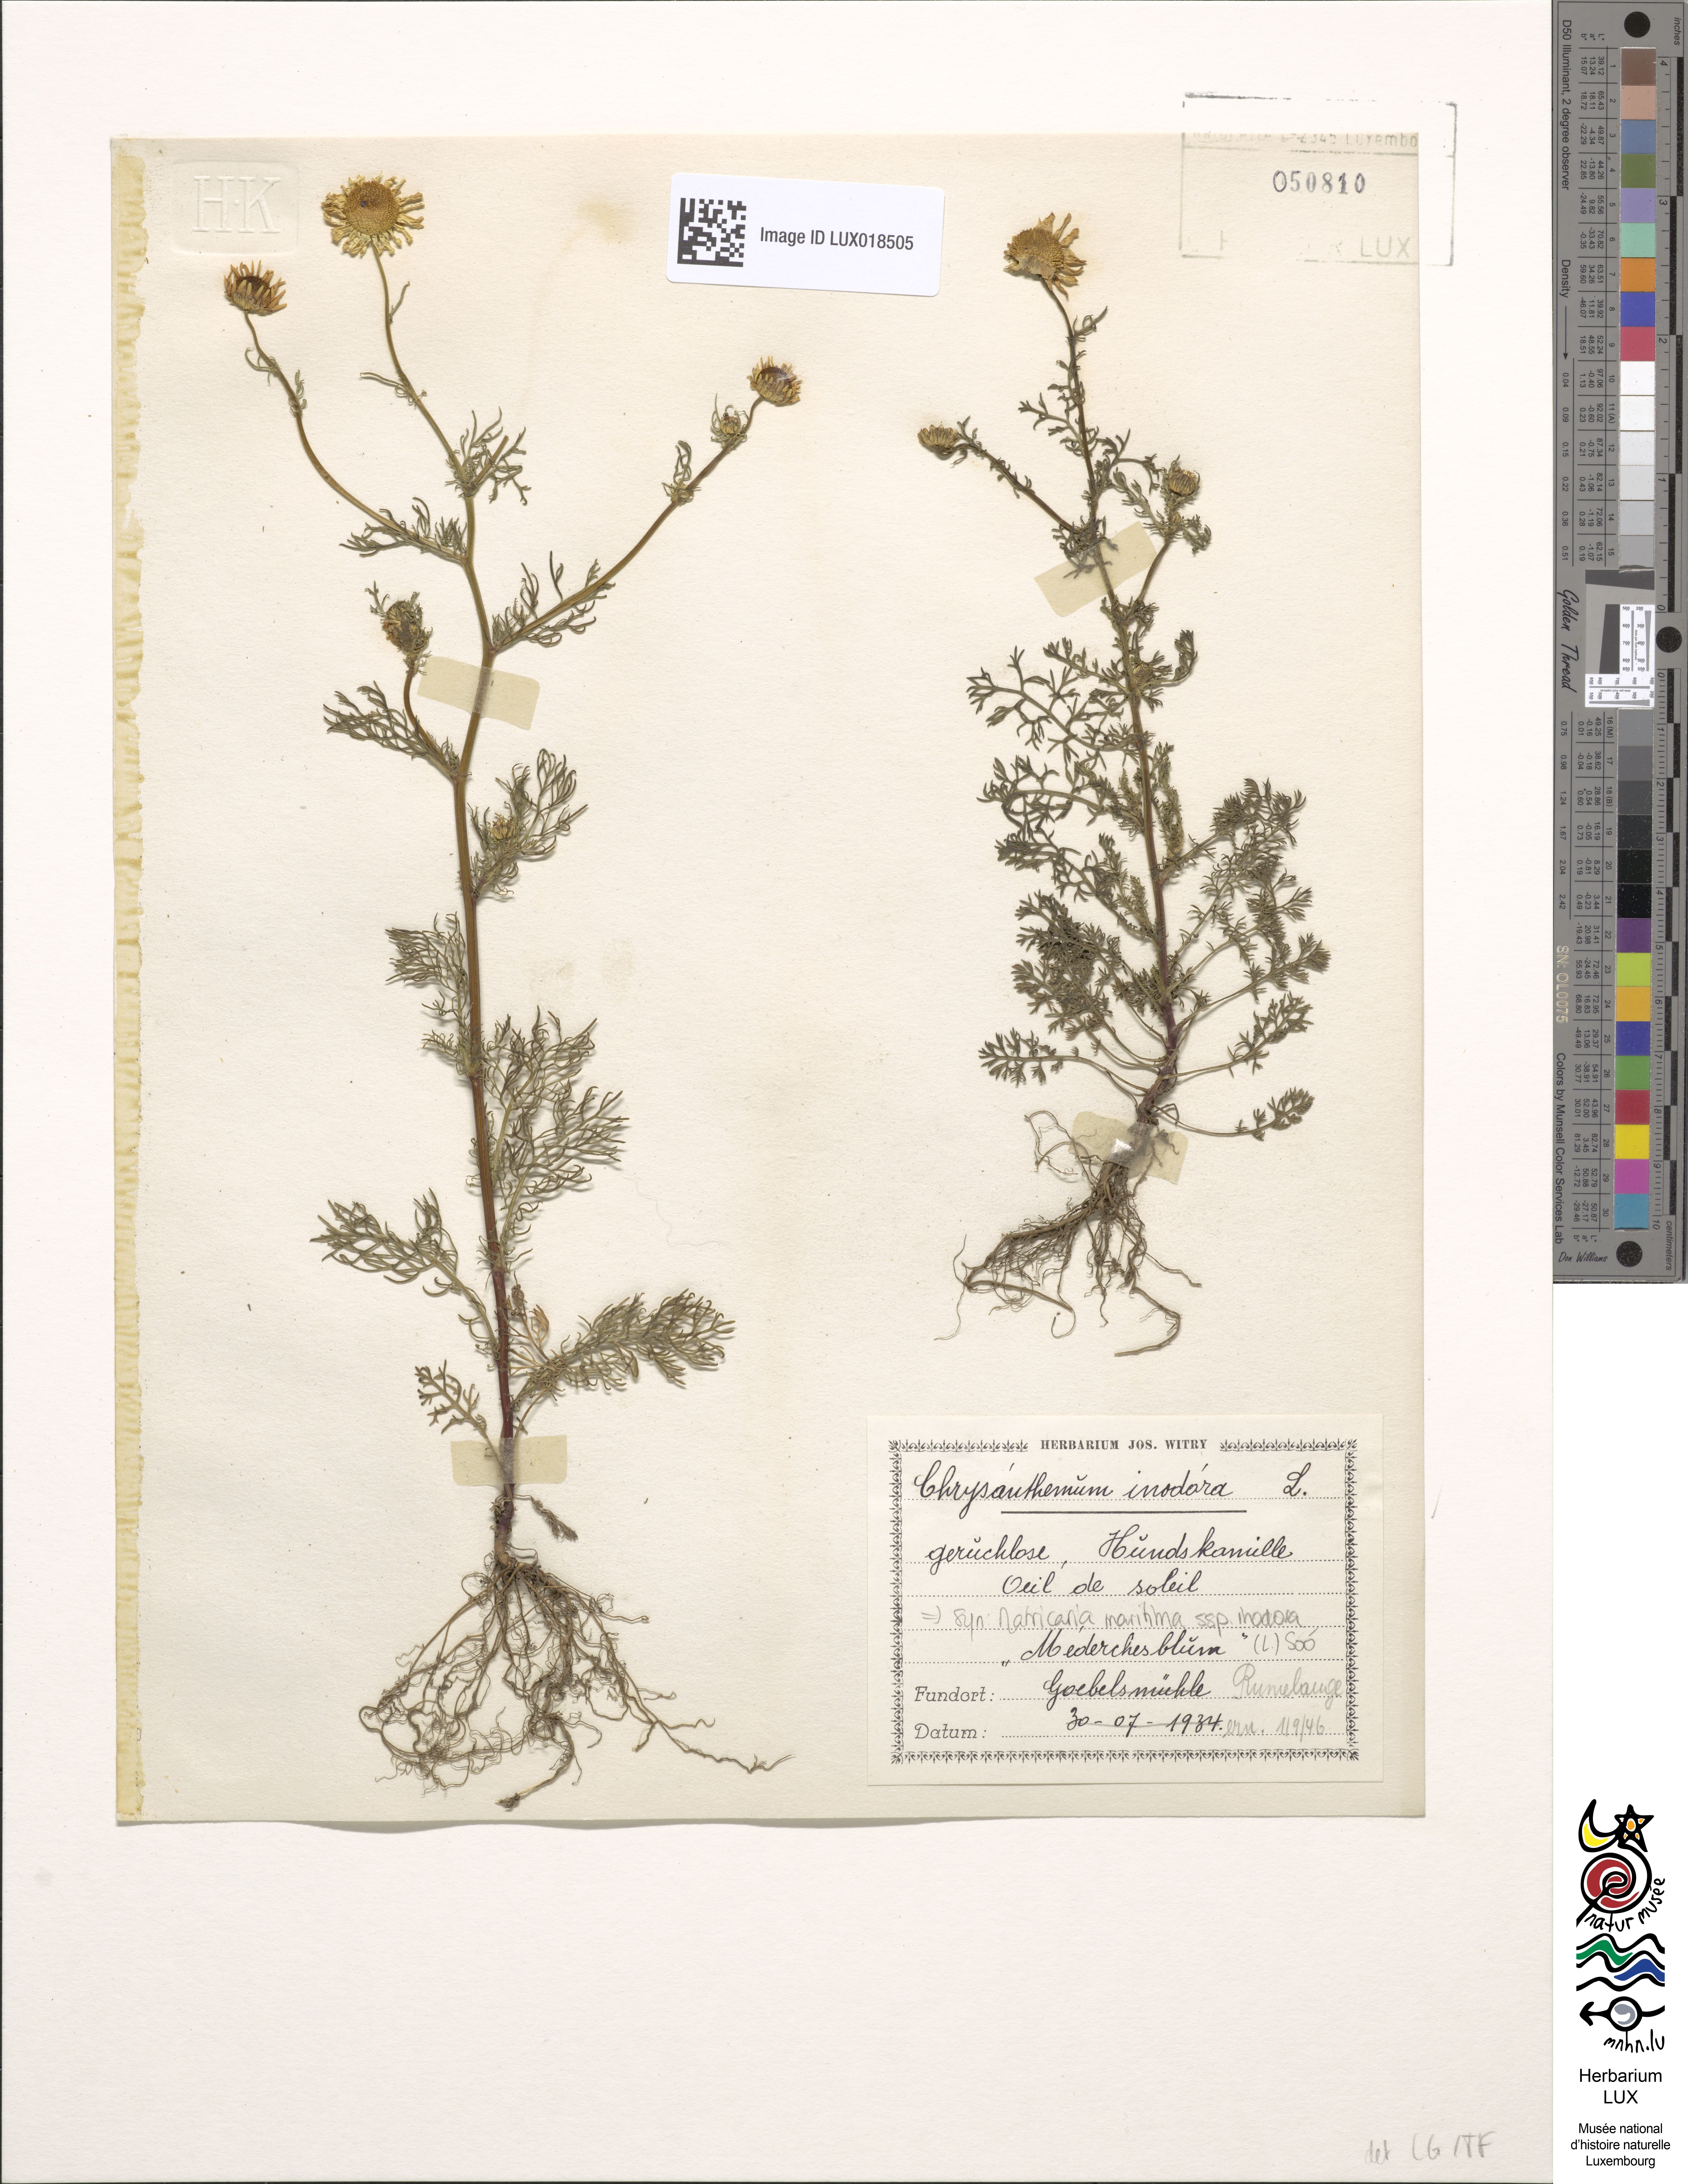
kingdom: Plantae
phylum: Tracheophyta
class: Magnoliopsida
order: Asterales
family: Asteraceae
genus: Tripleurospermum
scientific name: Tripleurospermum maritimum
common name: Sea mayweed
